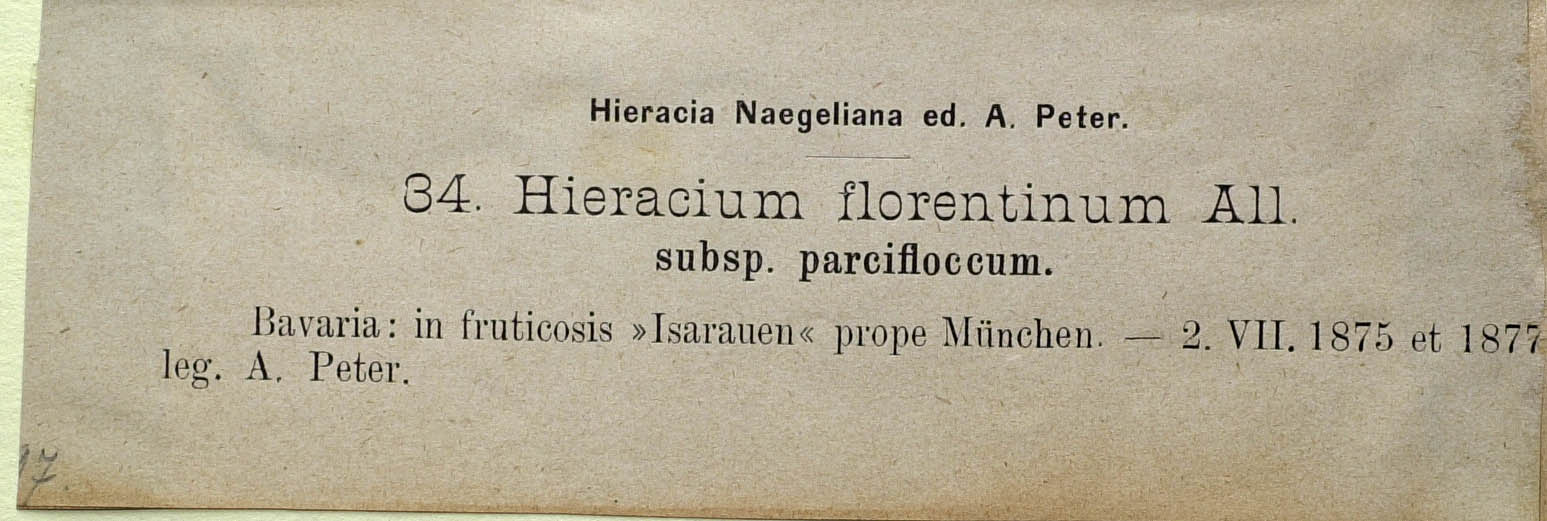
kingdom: Plantae
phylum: Tracheophyta
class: Magnoliopsida
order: Asterales
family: Asteraceae
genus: Pilosella
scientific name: Pilosella piloselloides
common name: Glaucous king-devil
